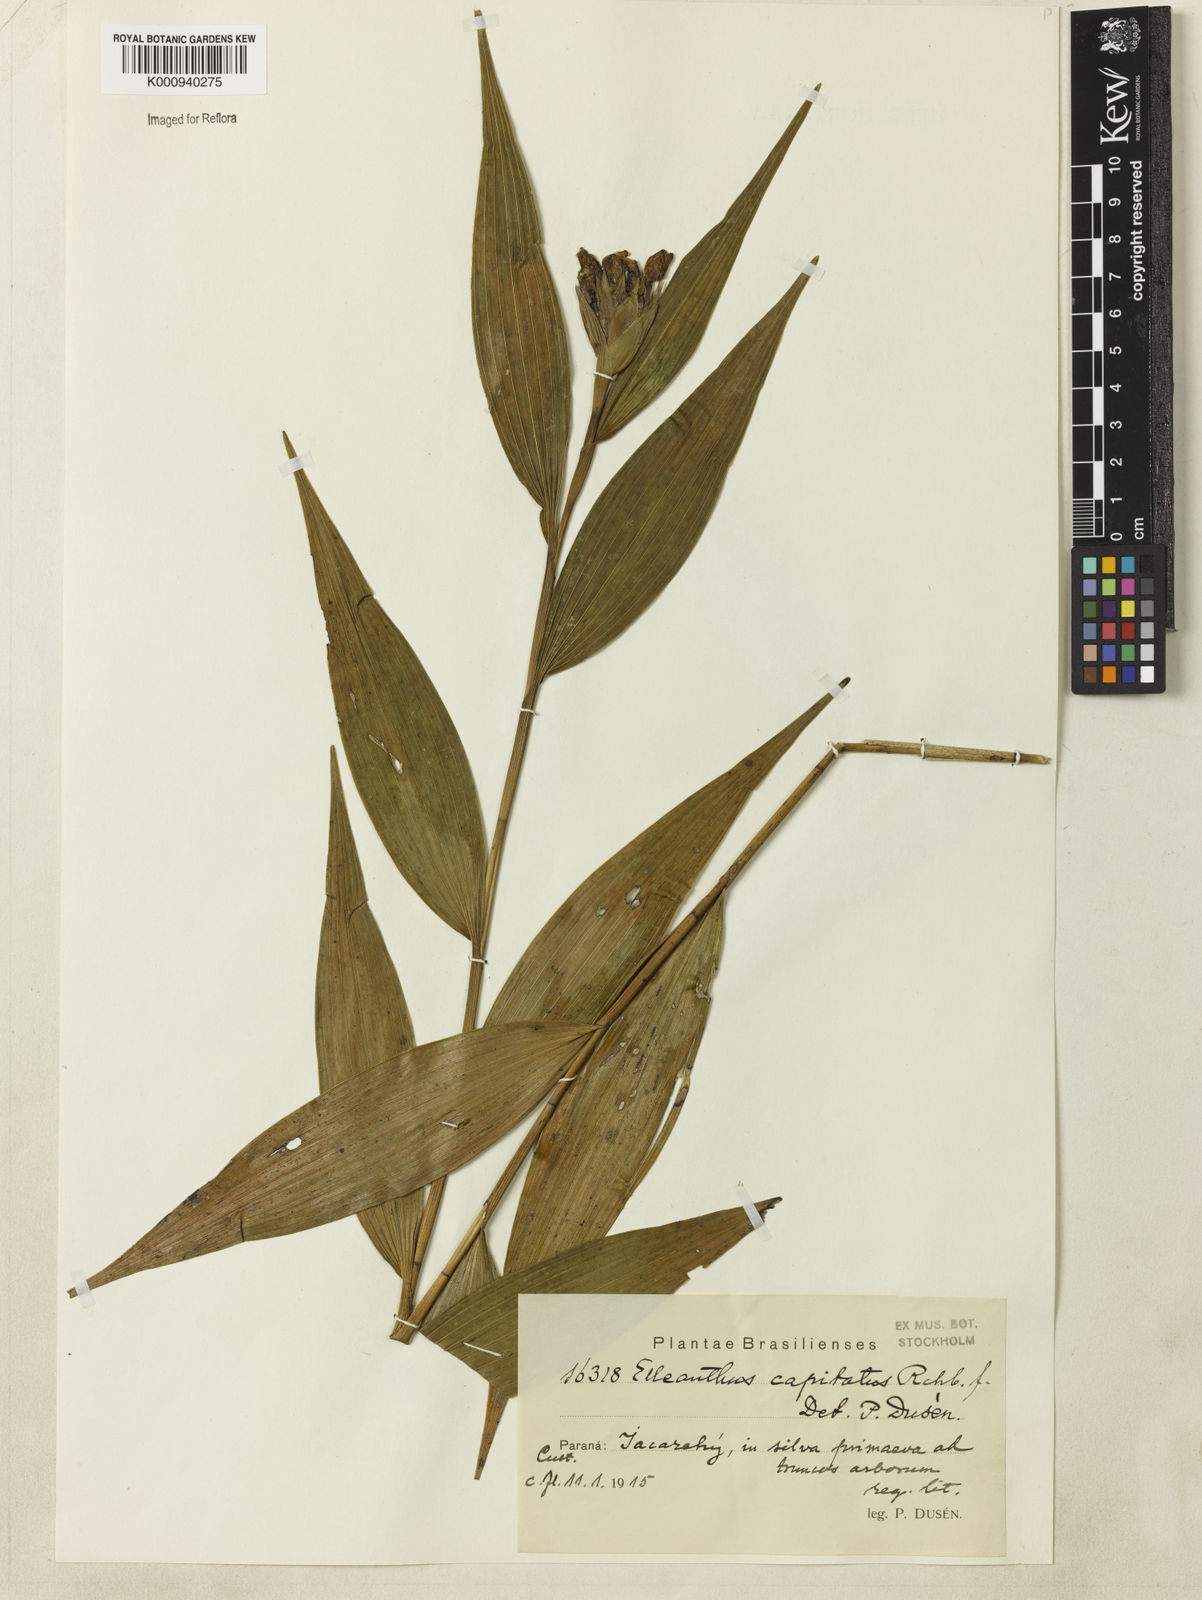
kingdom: Plantae
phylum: Tracheophyta
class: Liliopsida
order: Asparagales
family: Orchidaceae
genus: Elleanthus
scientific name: Elleanthus capitatus
